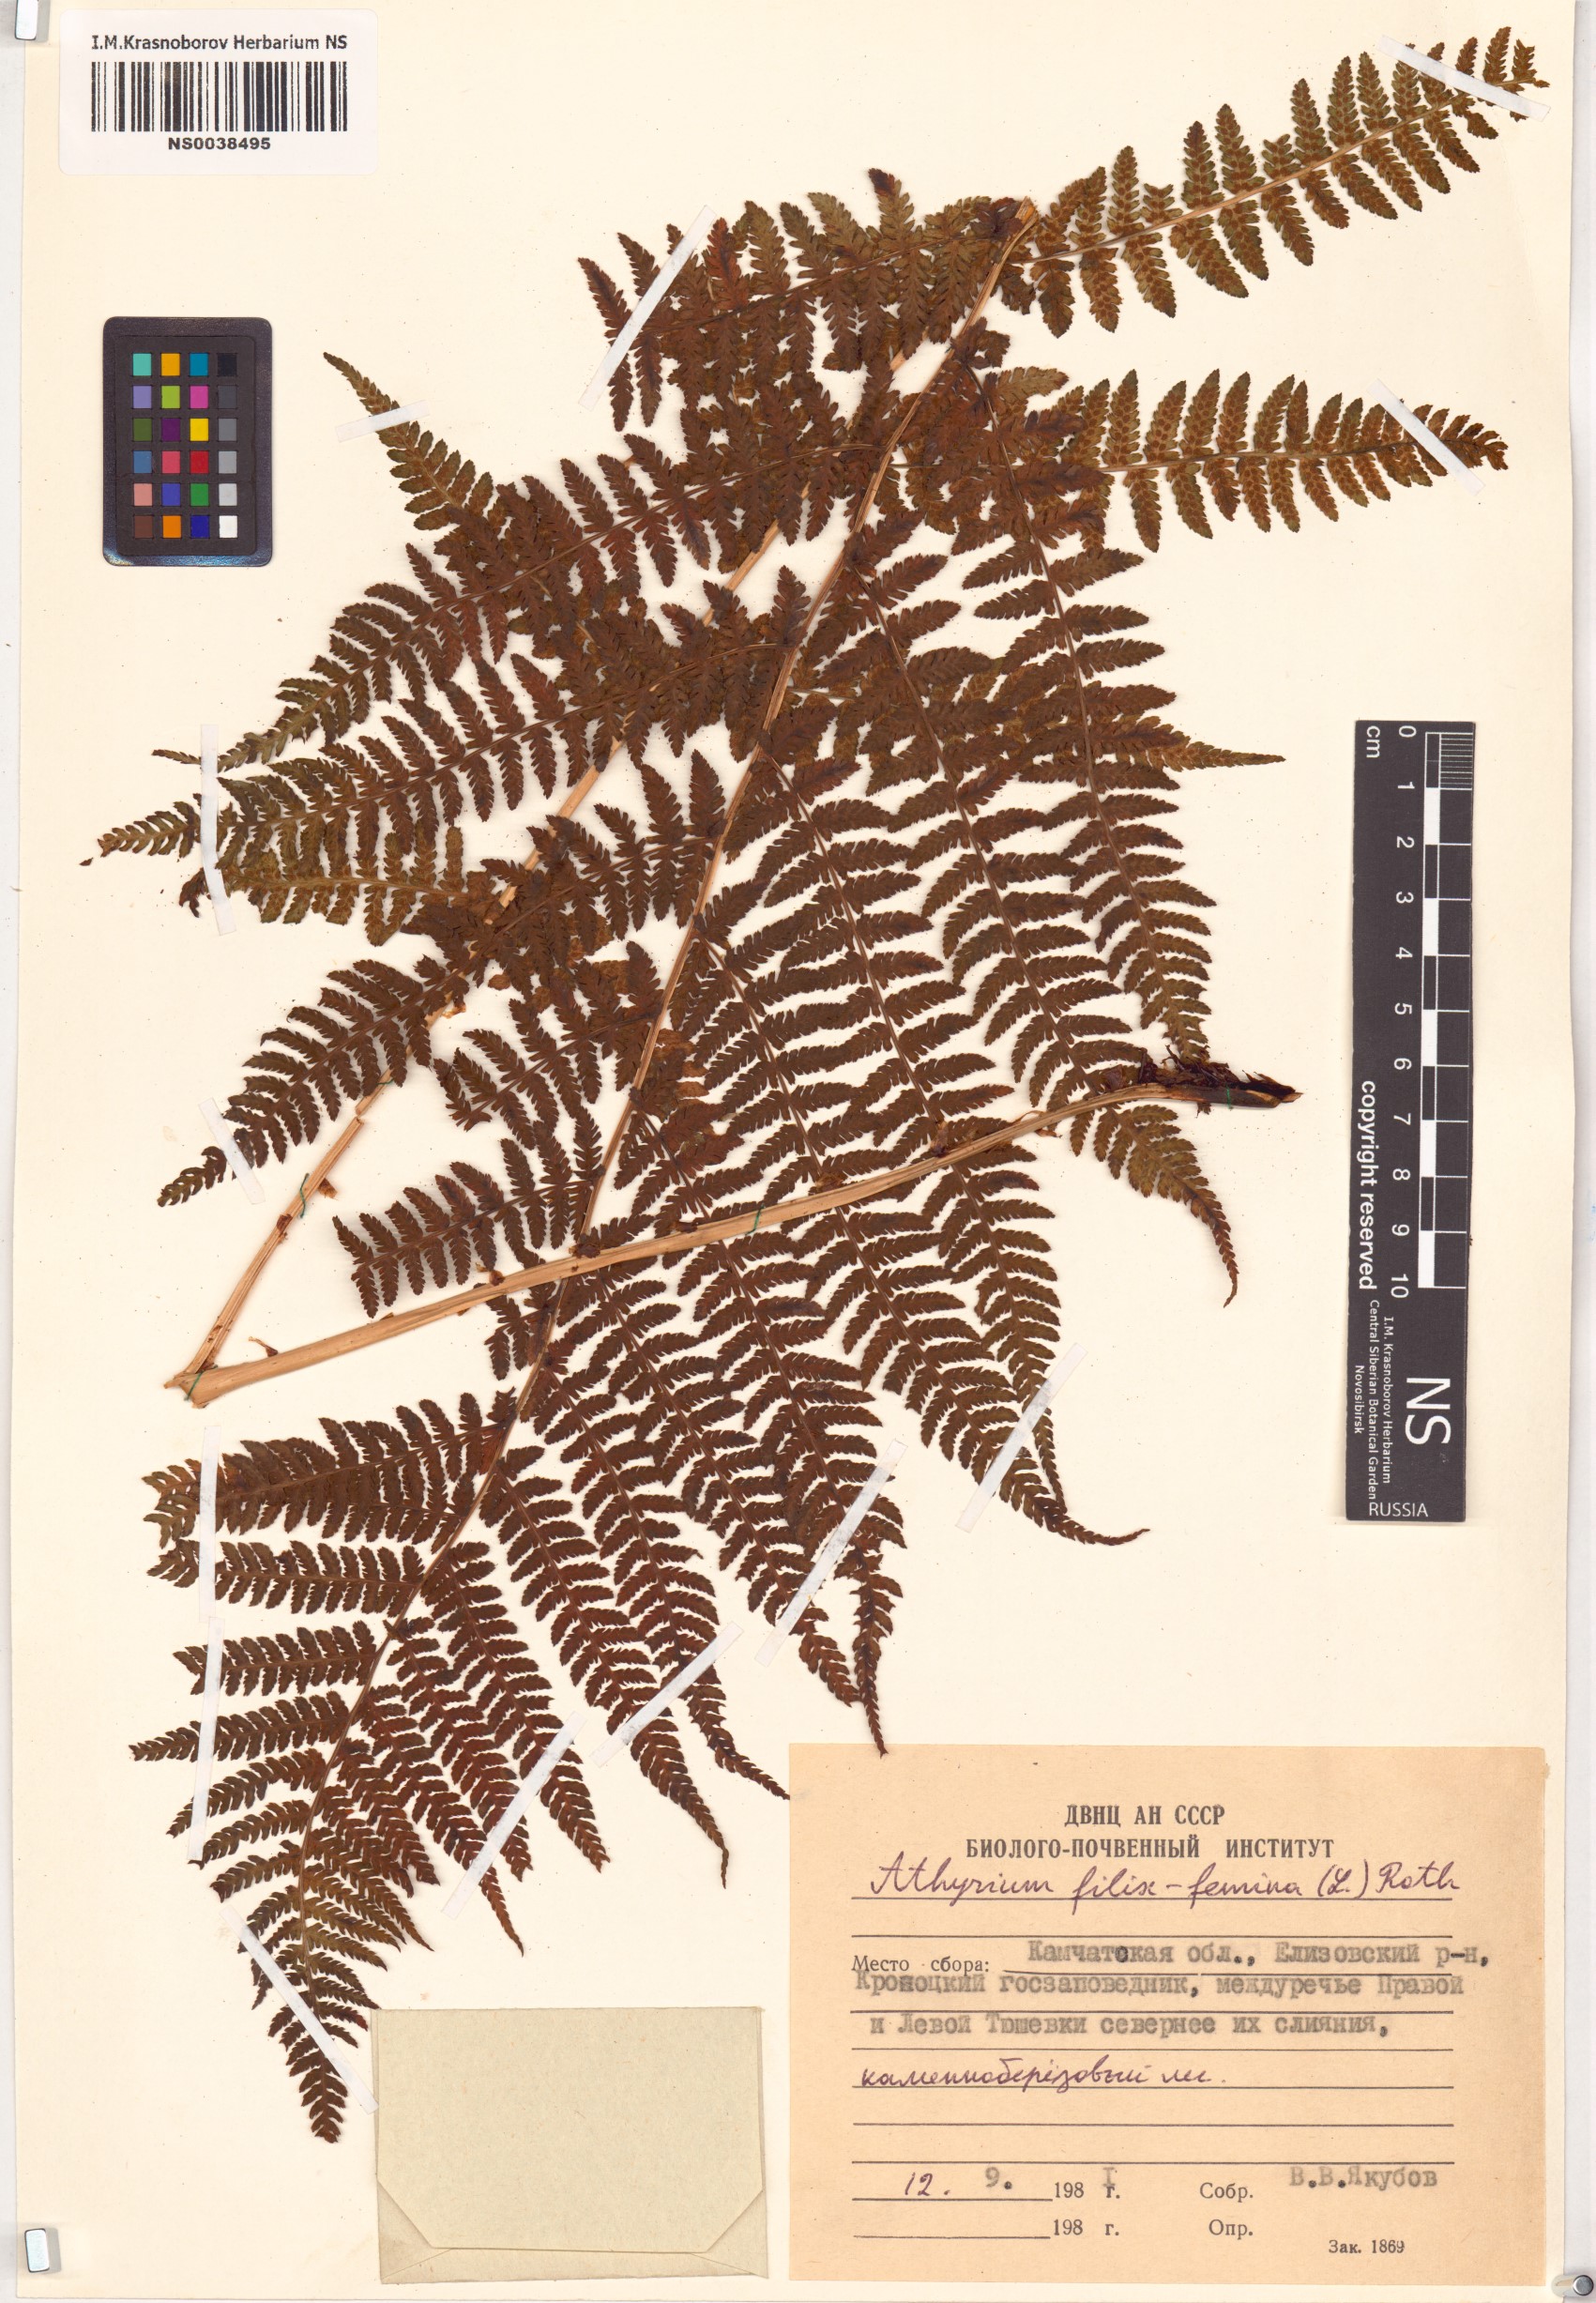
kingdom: Plantae
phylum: Tracheophyta
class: Polypodiopsida
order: Polypodiales
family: Athyriaceae
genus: Athyrium
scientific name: Athyrium filix-femina
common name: Lady fern
